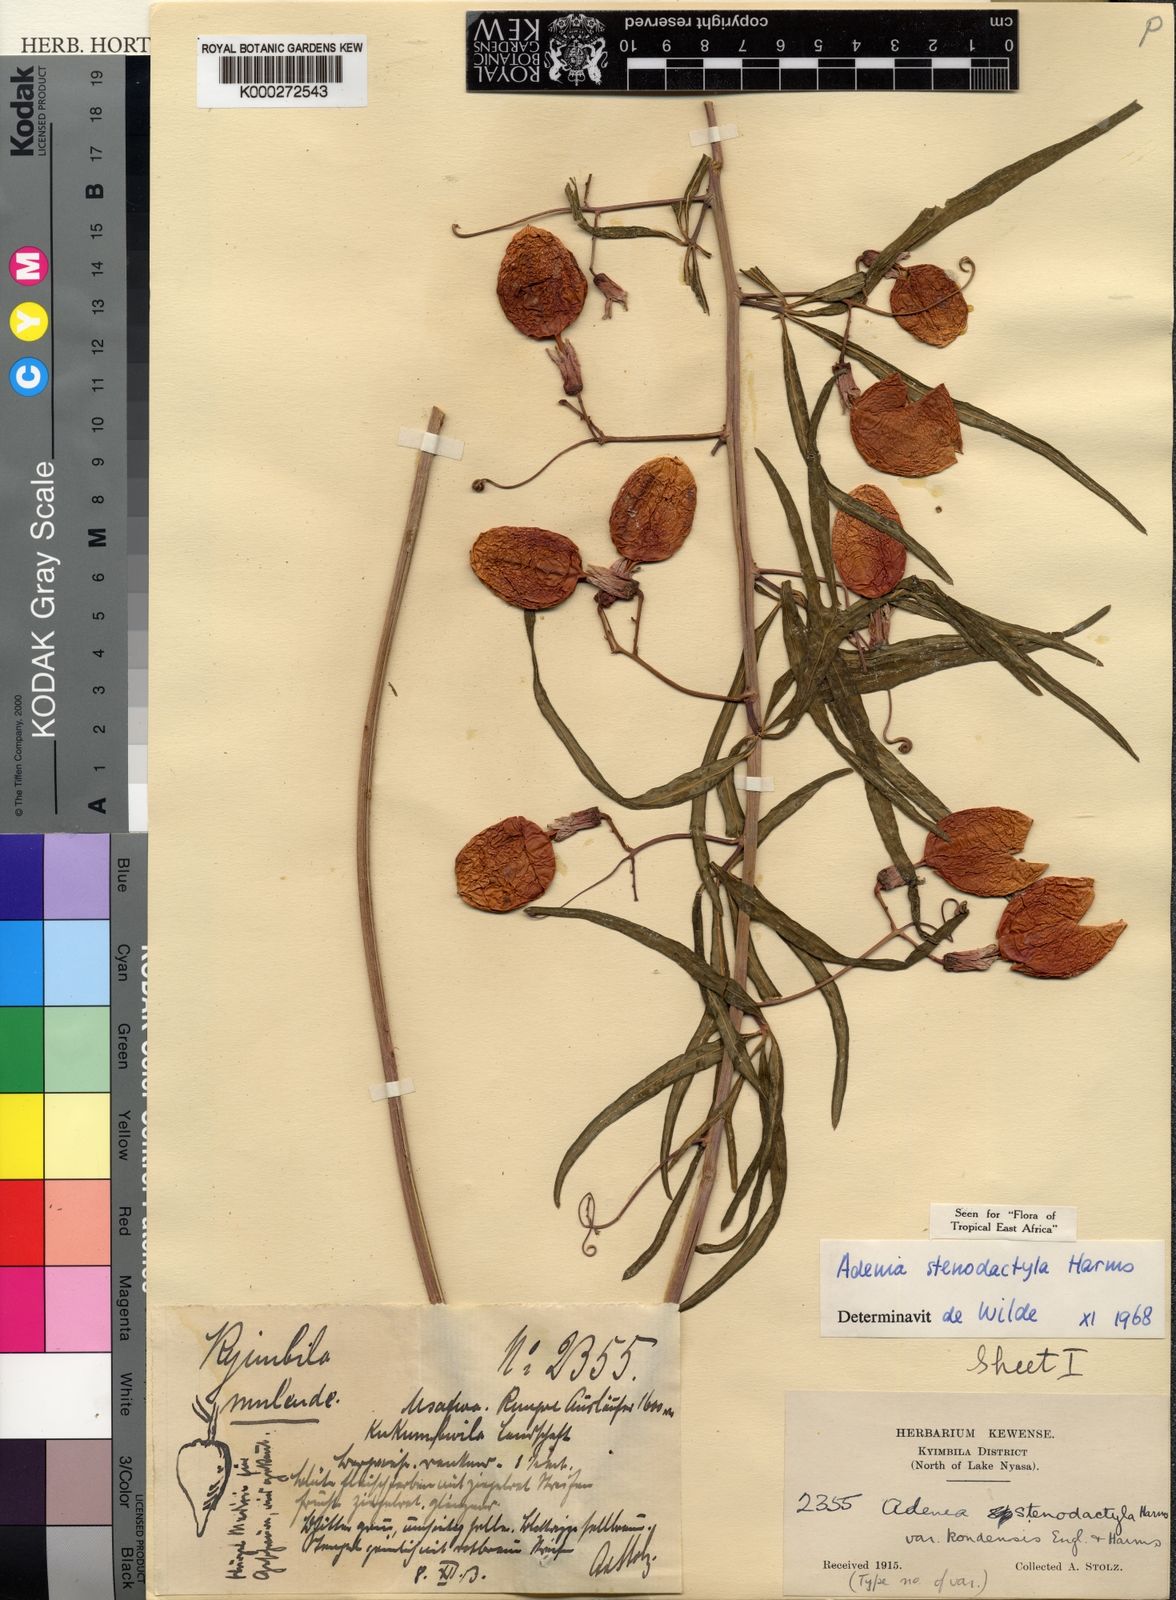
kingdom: Plantae
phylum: Tracheophyta
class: Magnoliopsida
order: Malpighiales
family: Passifloraceae
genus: Adenia
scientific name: Adenia stenodactyla
